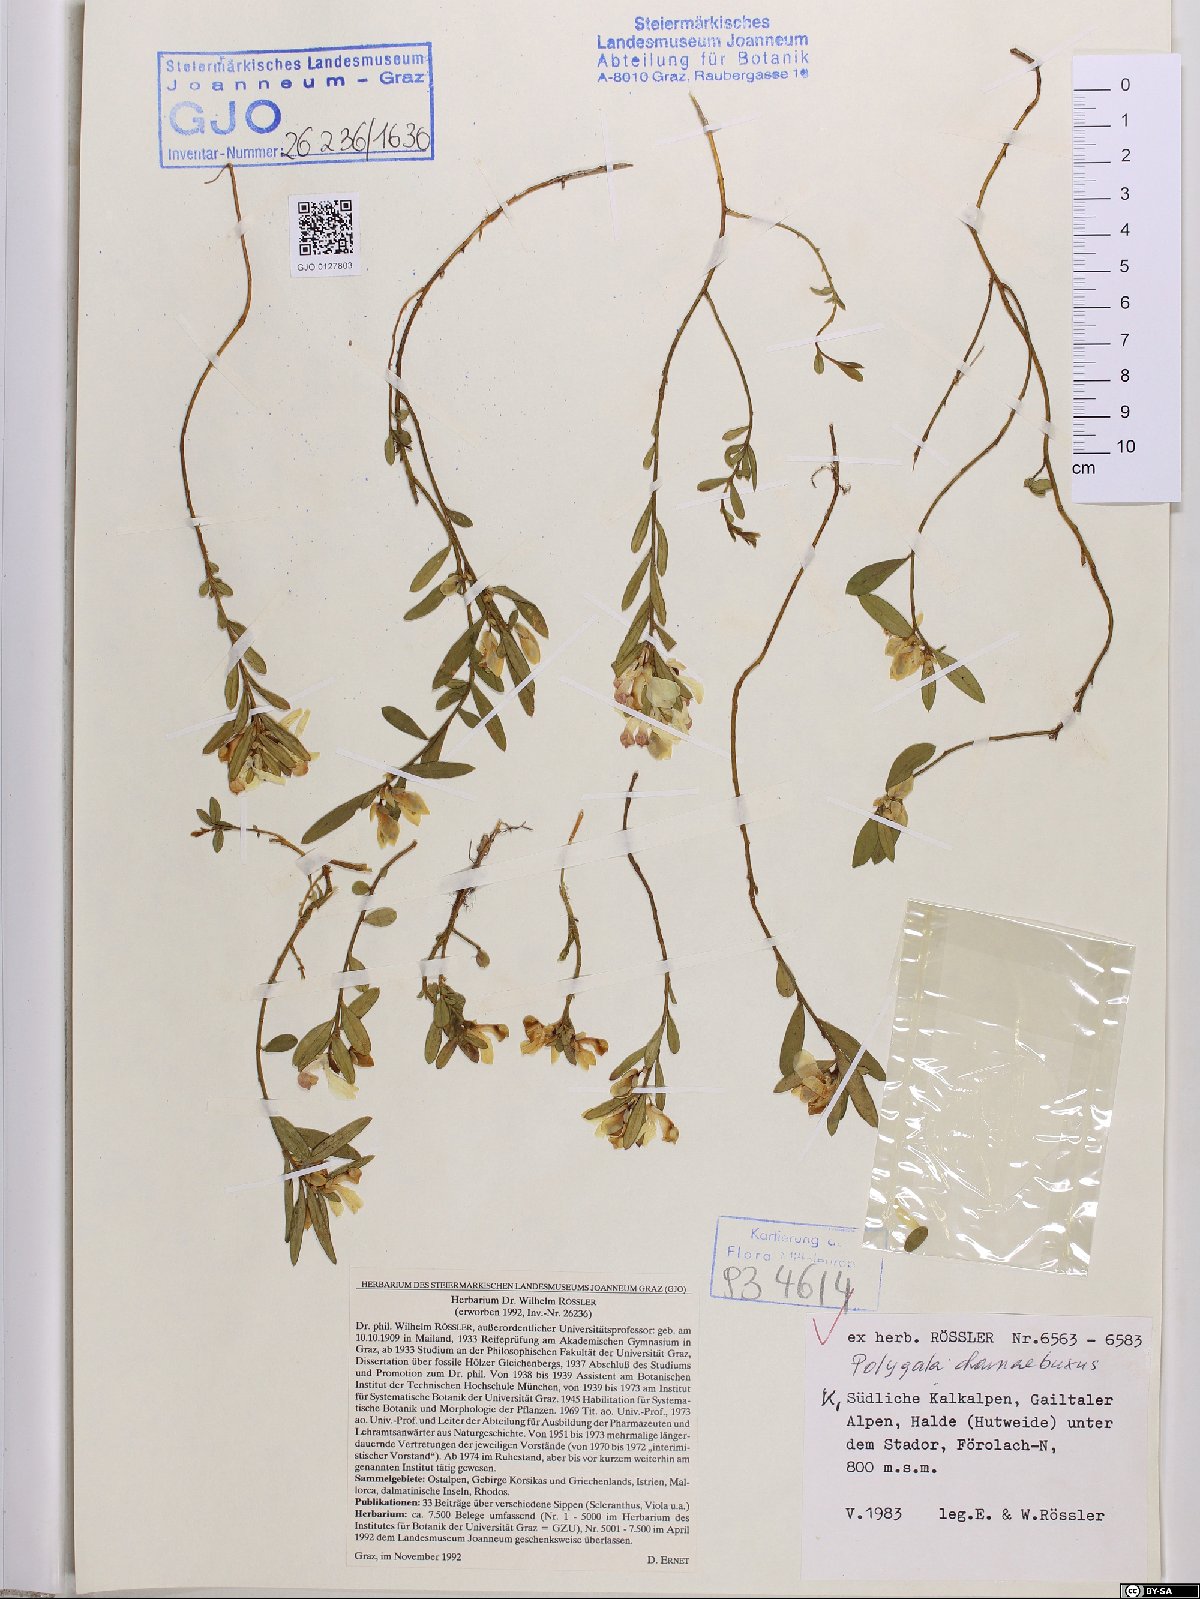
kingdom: Plantae
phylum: Tracheophyta
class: Magnoliopsida
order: Fabales
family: Polygalaceae
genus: Polygaloides
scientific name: Polygaloides chamaebuxus
